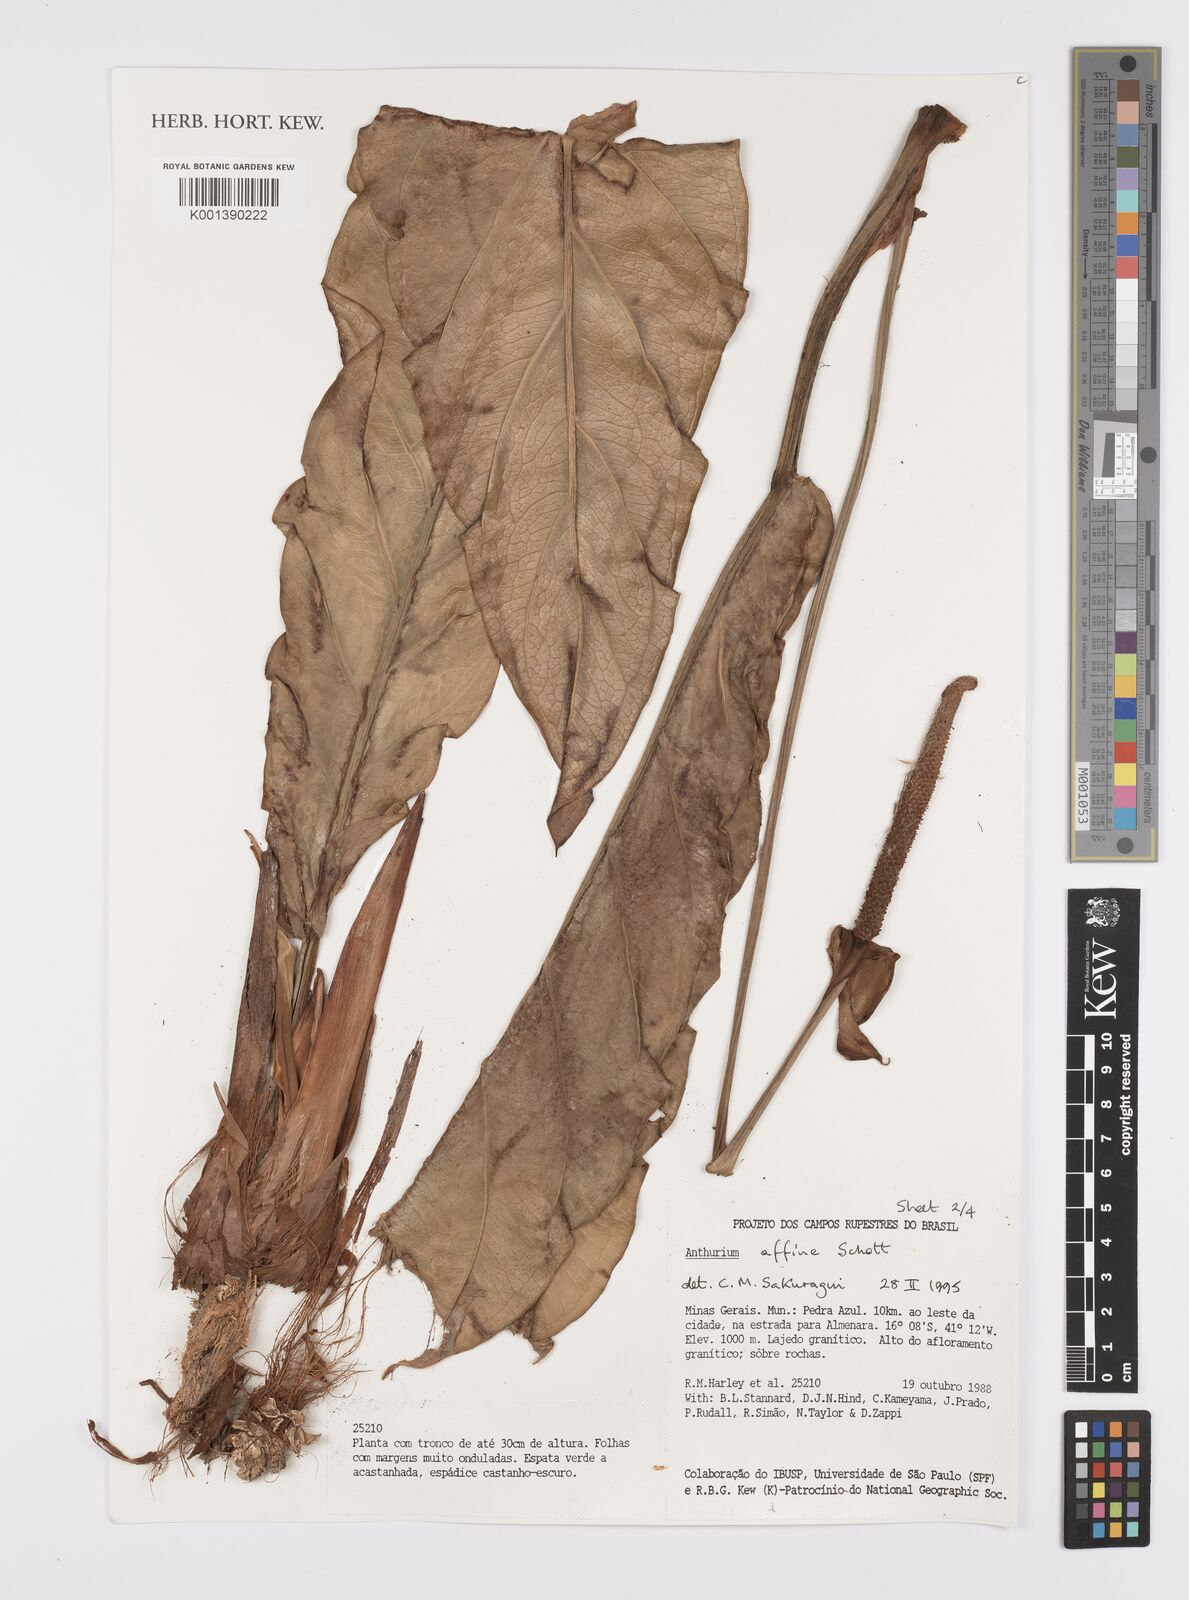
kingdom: Plantae
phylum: Tracheophyta
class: Liliopsida
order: Alismatales
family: Araceae
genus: Anthurium
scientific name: Anthurium affine
